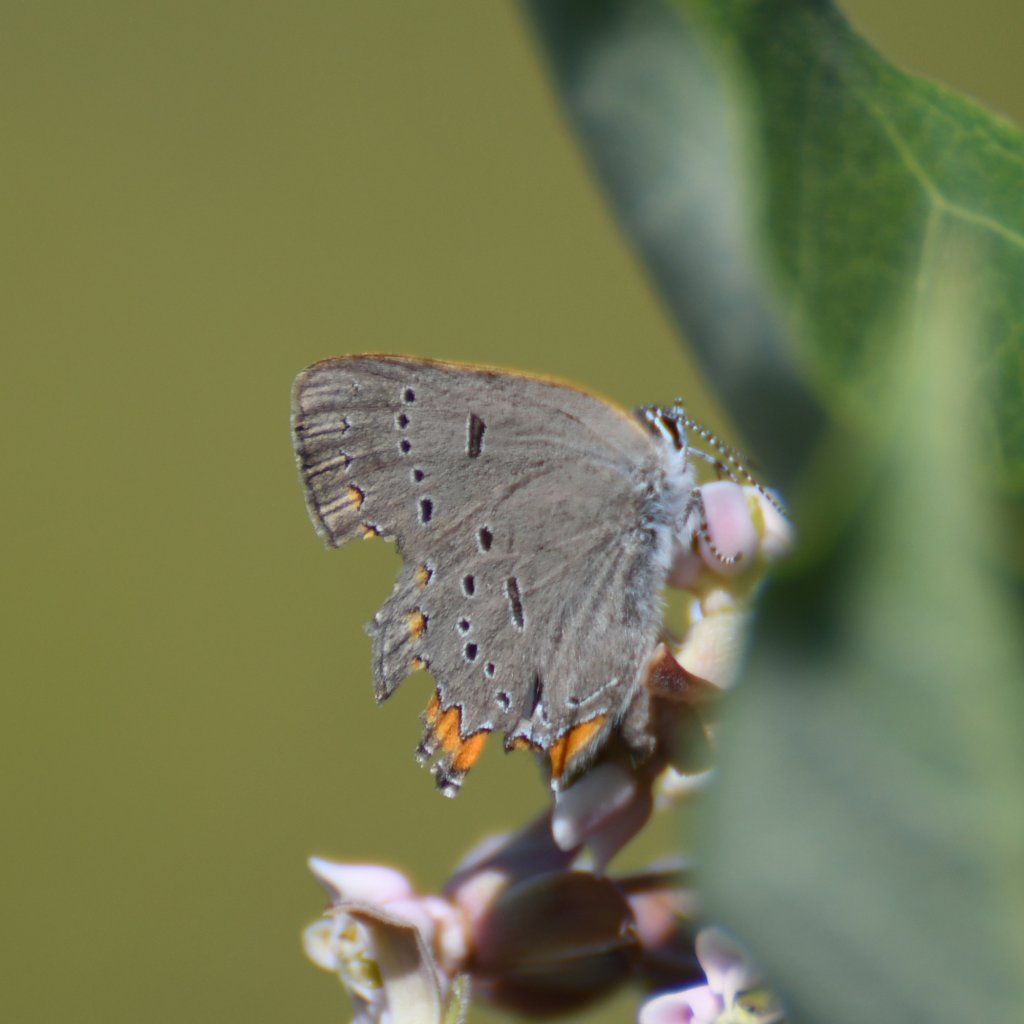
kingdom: Animalia
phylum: Arthropoda
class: Insecta
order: Lepidoptera
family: Lycaenidae
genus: Strymon
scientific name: Strymon acadica
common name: Acadian Hairstreak
